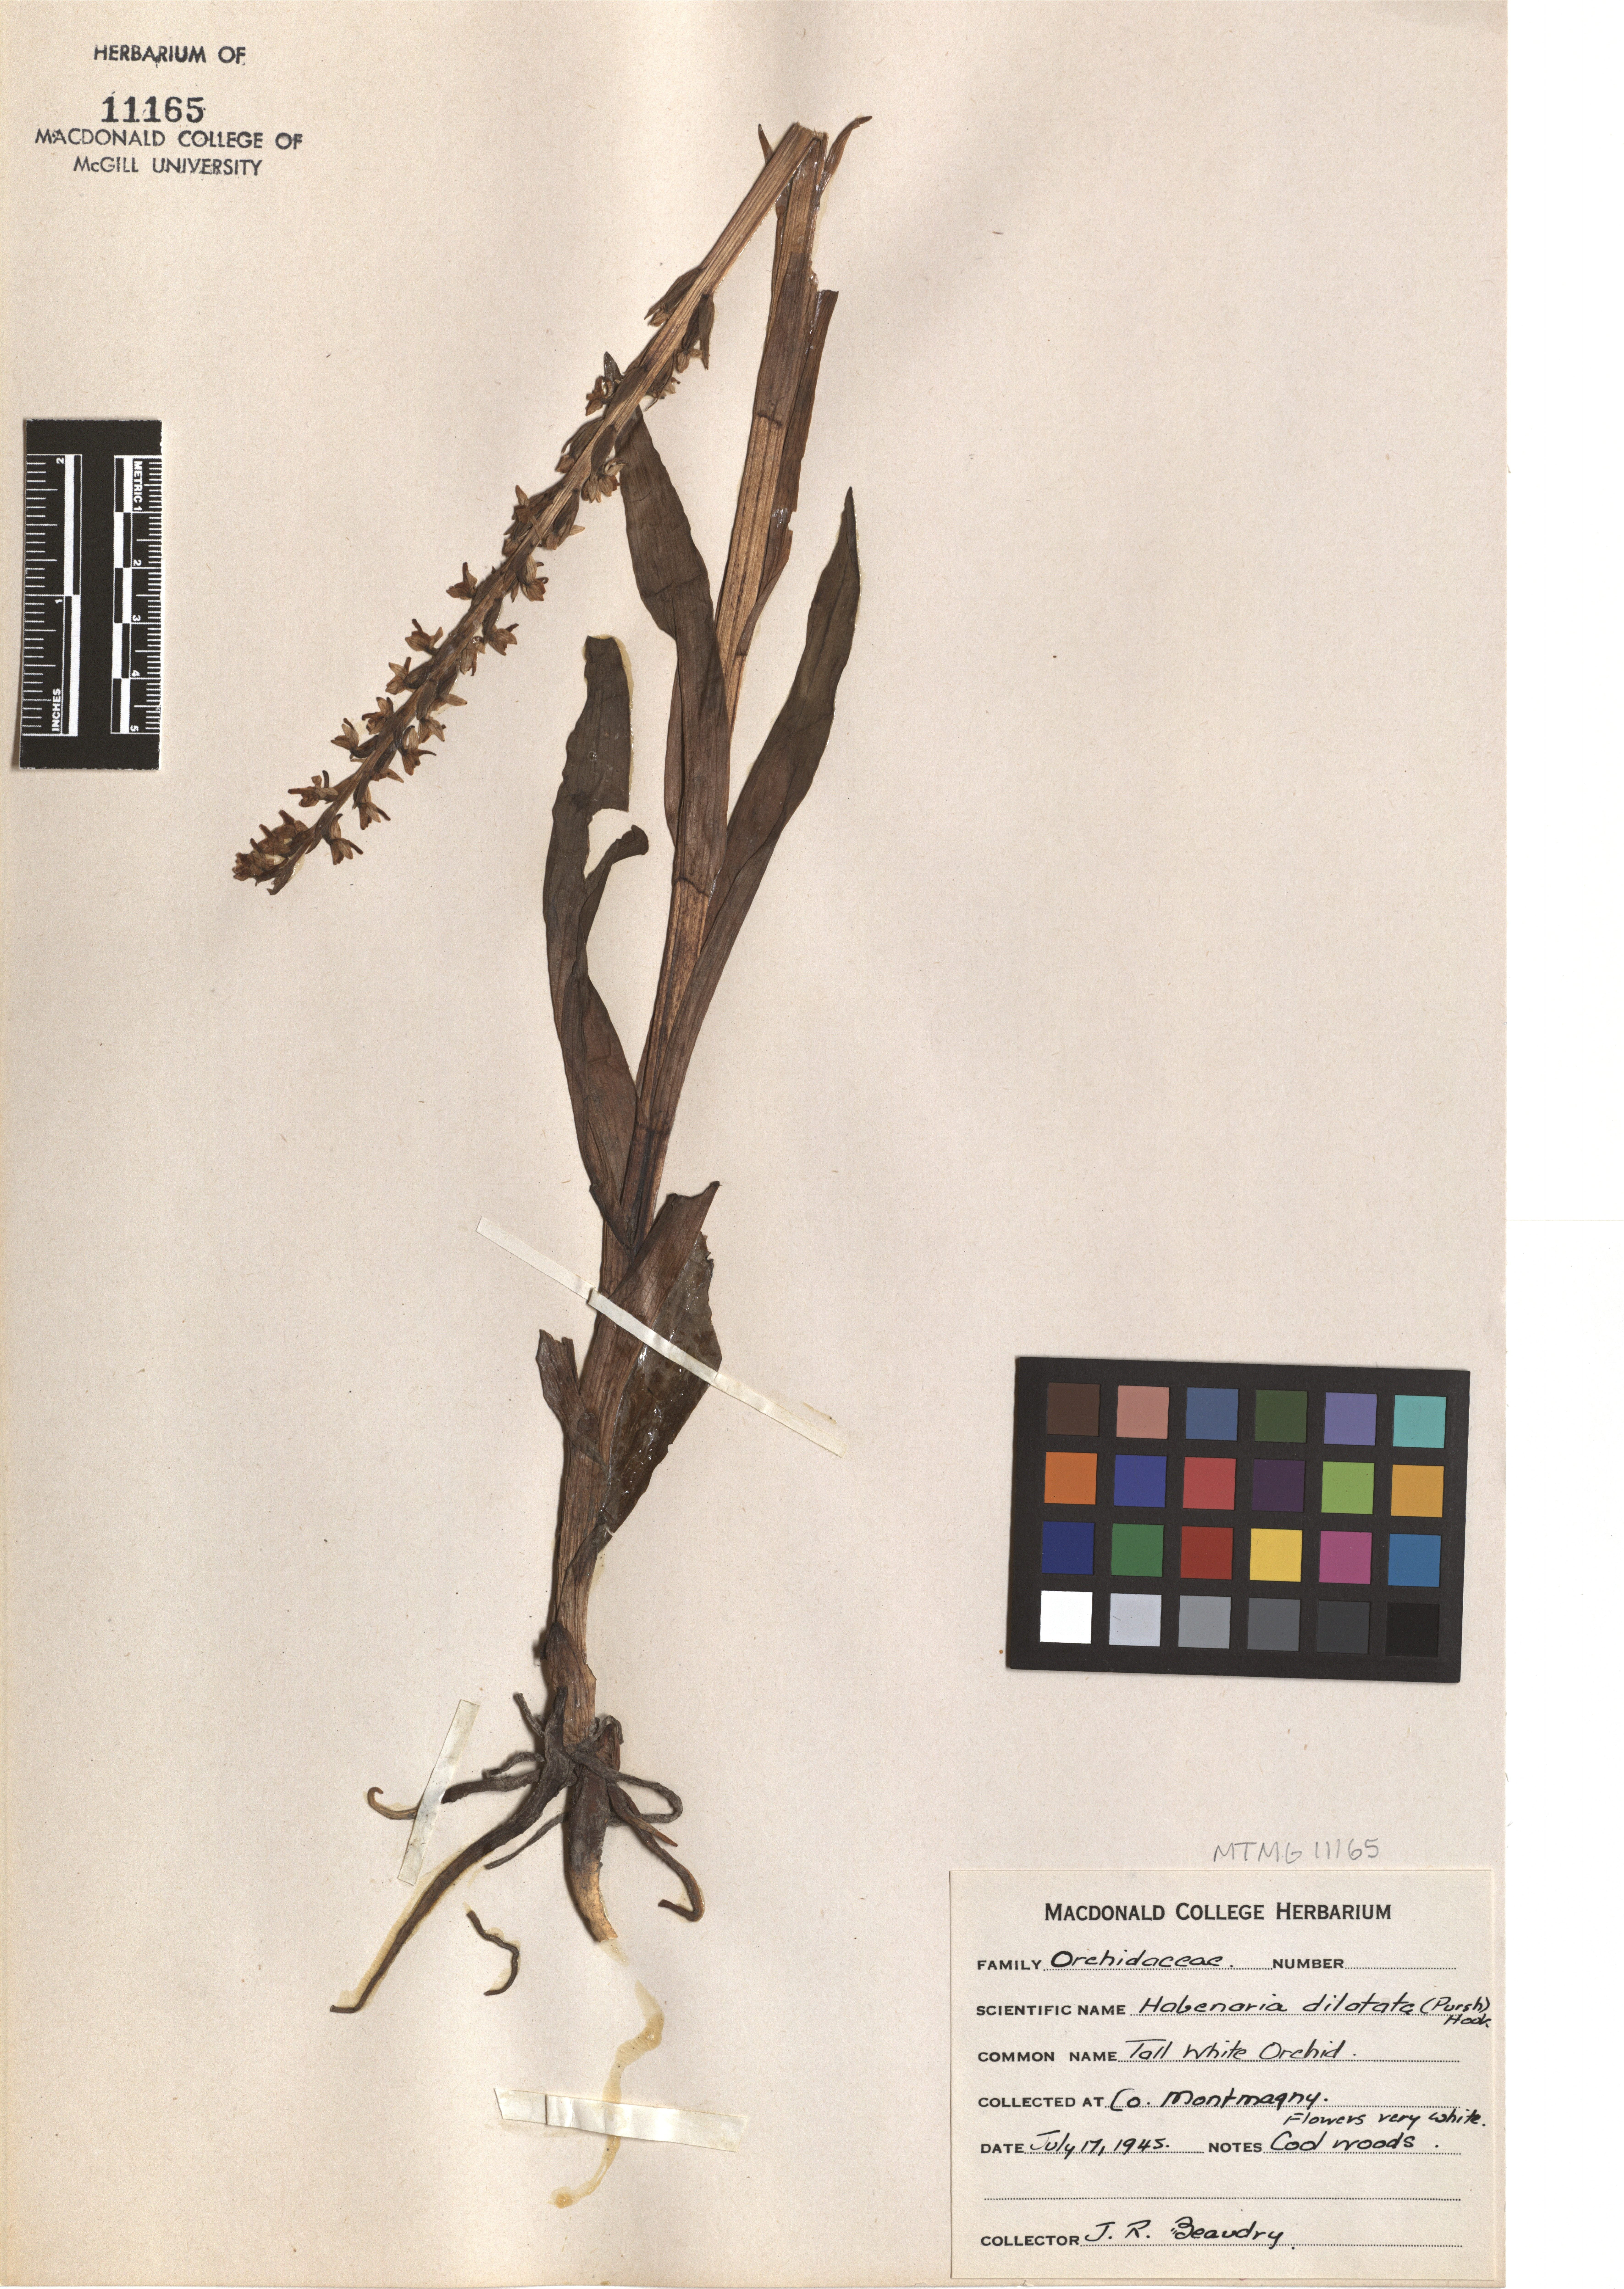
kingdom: Plantae
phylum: Tracheophyta
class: Liliopsida
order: Asparagales
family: Orchidaceae
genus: Platanthera
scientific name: Platanthera dilatata
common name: Bog candles
